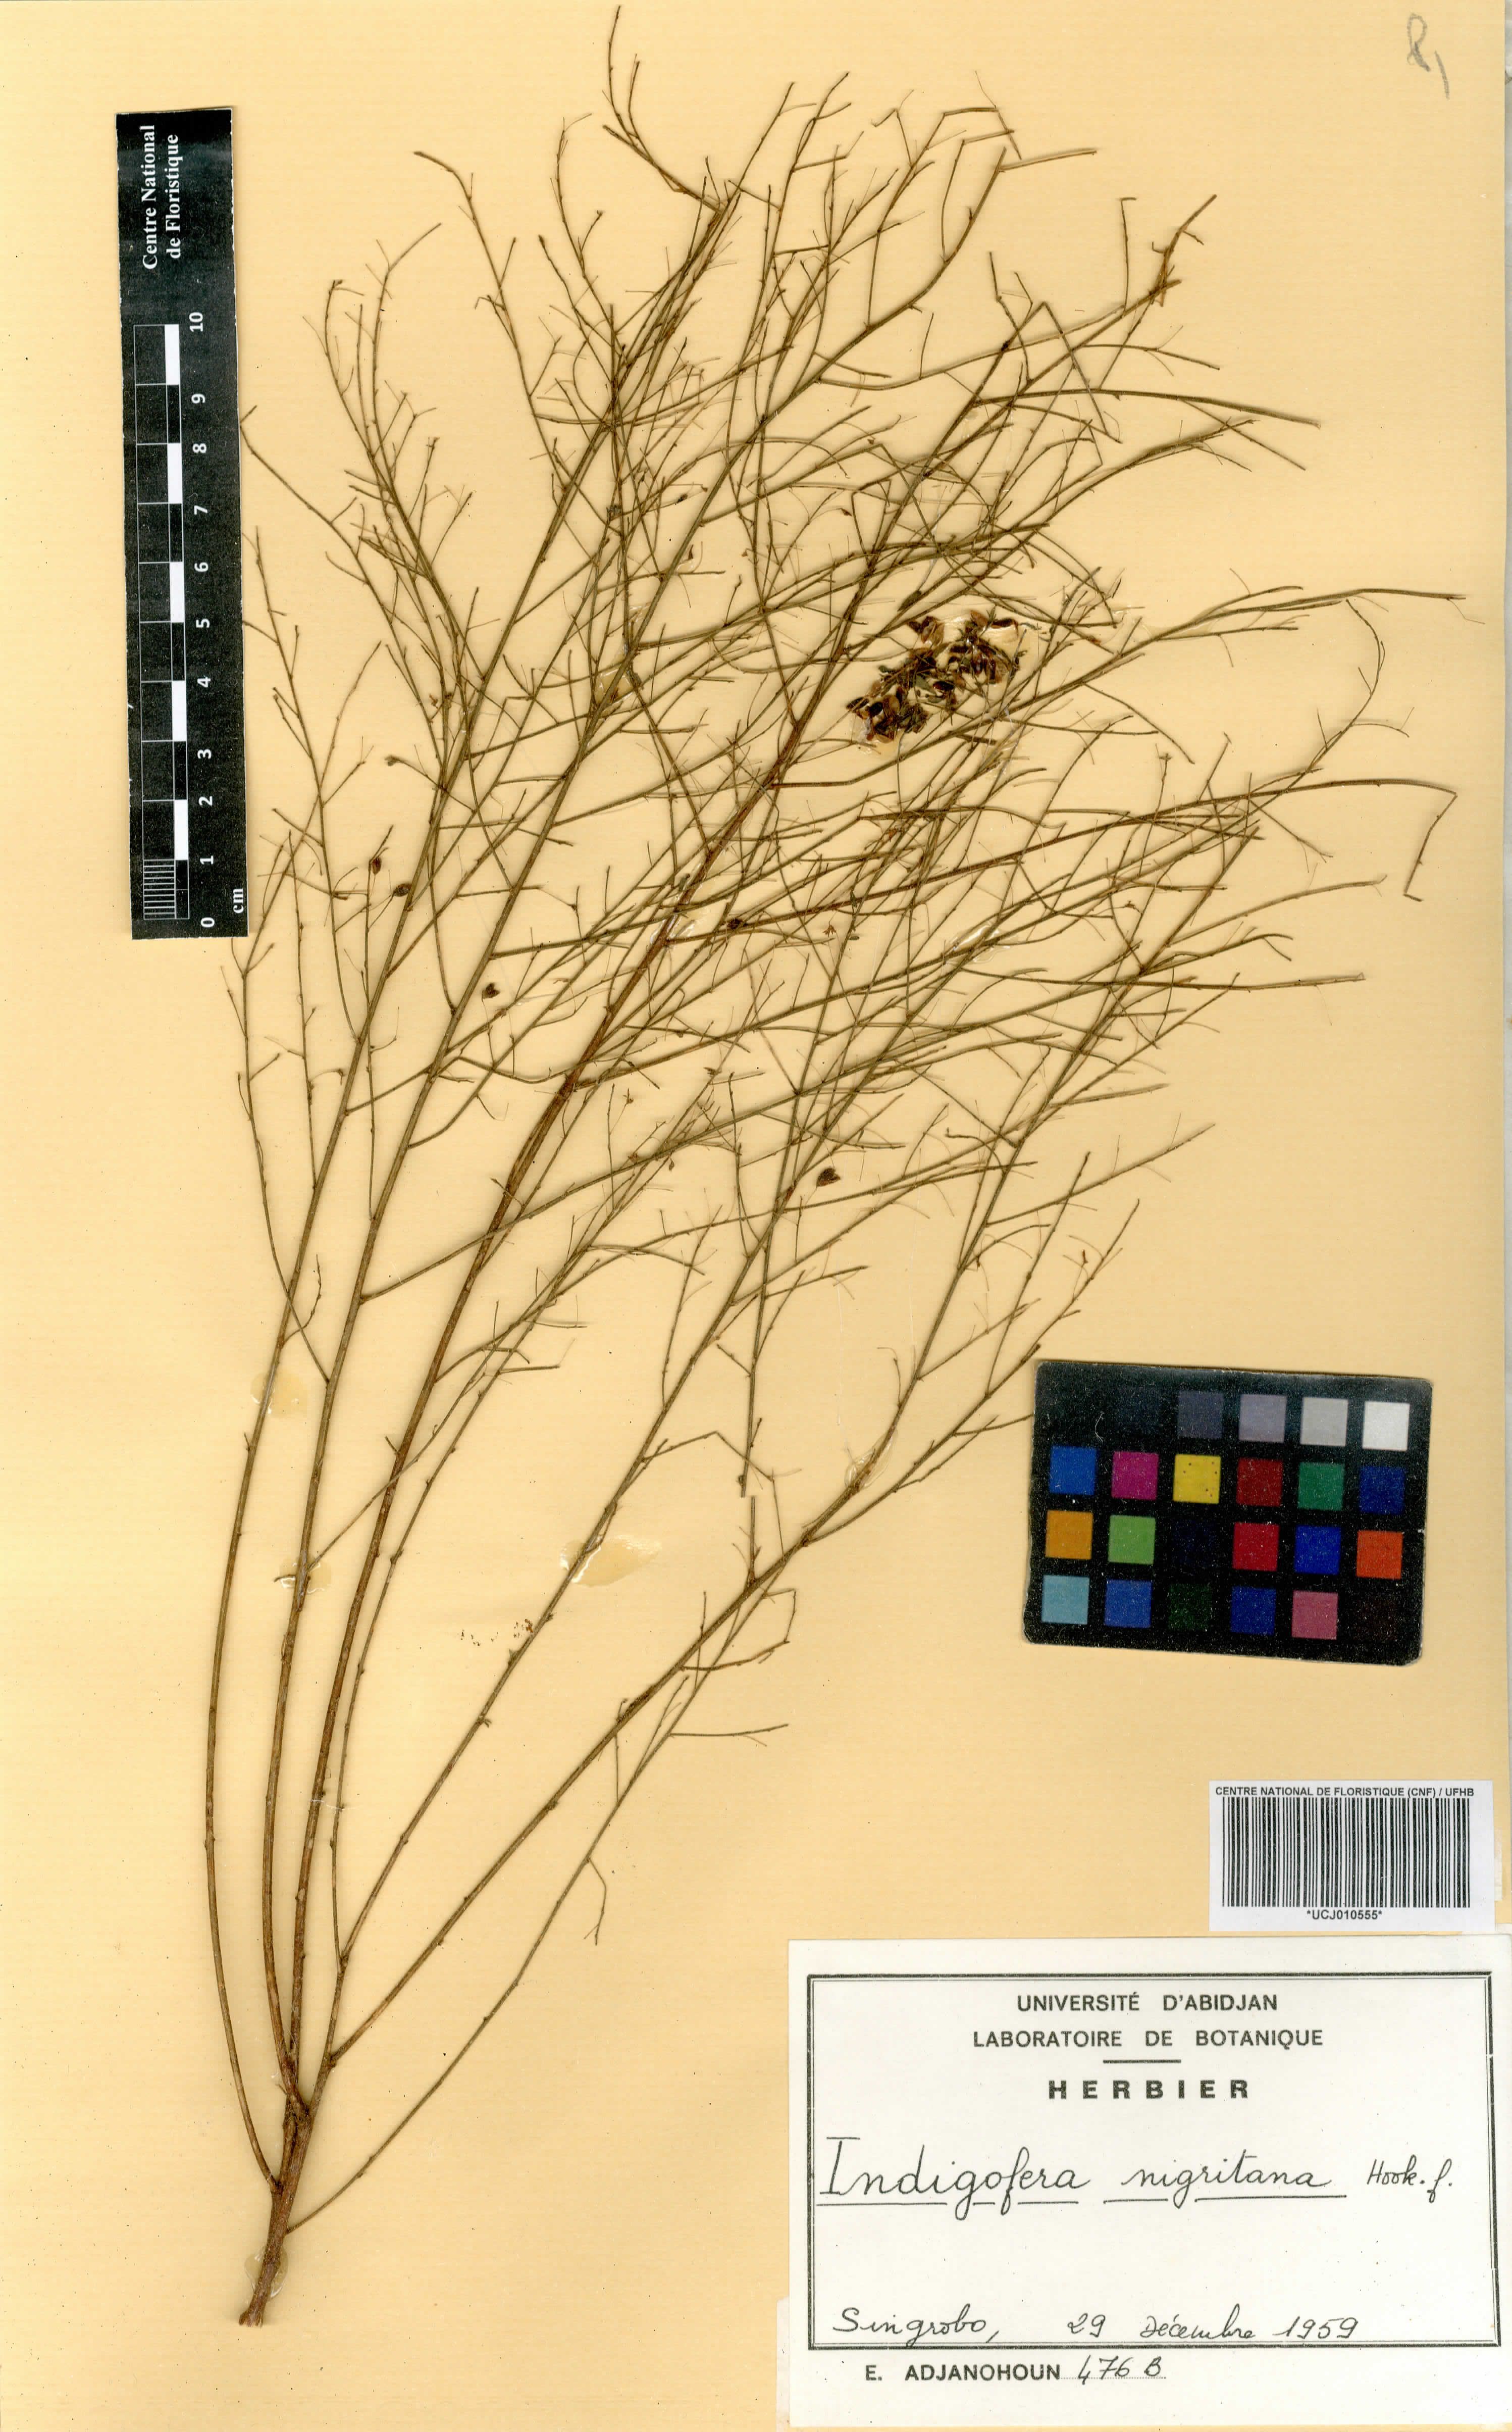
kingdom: Plantae
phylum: Tracheophyta
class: Magnoliopsida
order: Fabales
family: Fabaceae
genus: Indigofera
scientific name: Indigofera nigritana
